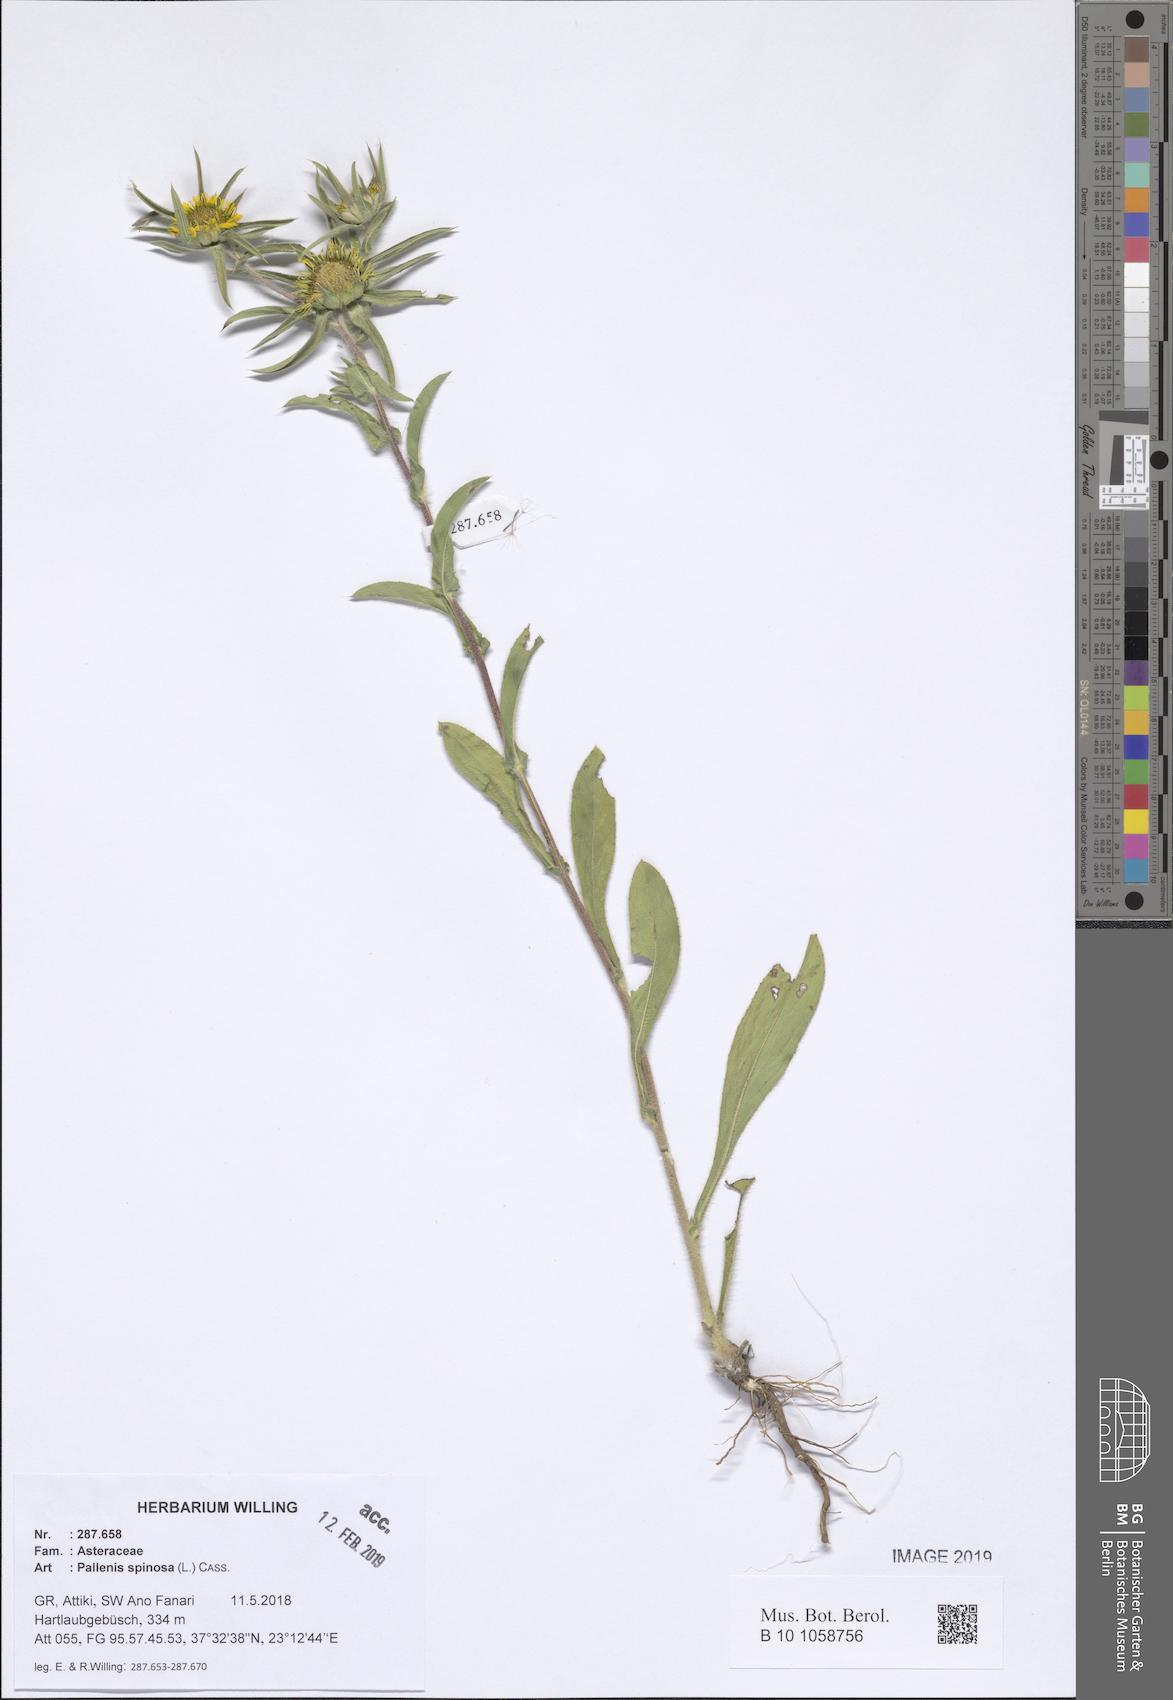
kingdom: Plantae
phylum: Tracheophyta
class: Magnoliopsida
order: Asterales
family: Asteraceae
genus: Pallenis
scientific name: Pallenis spinosa
